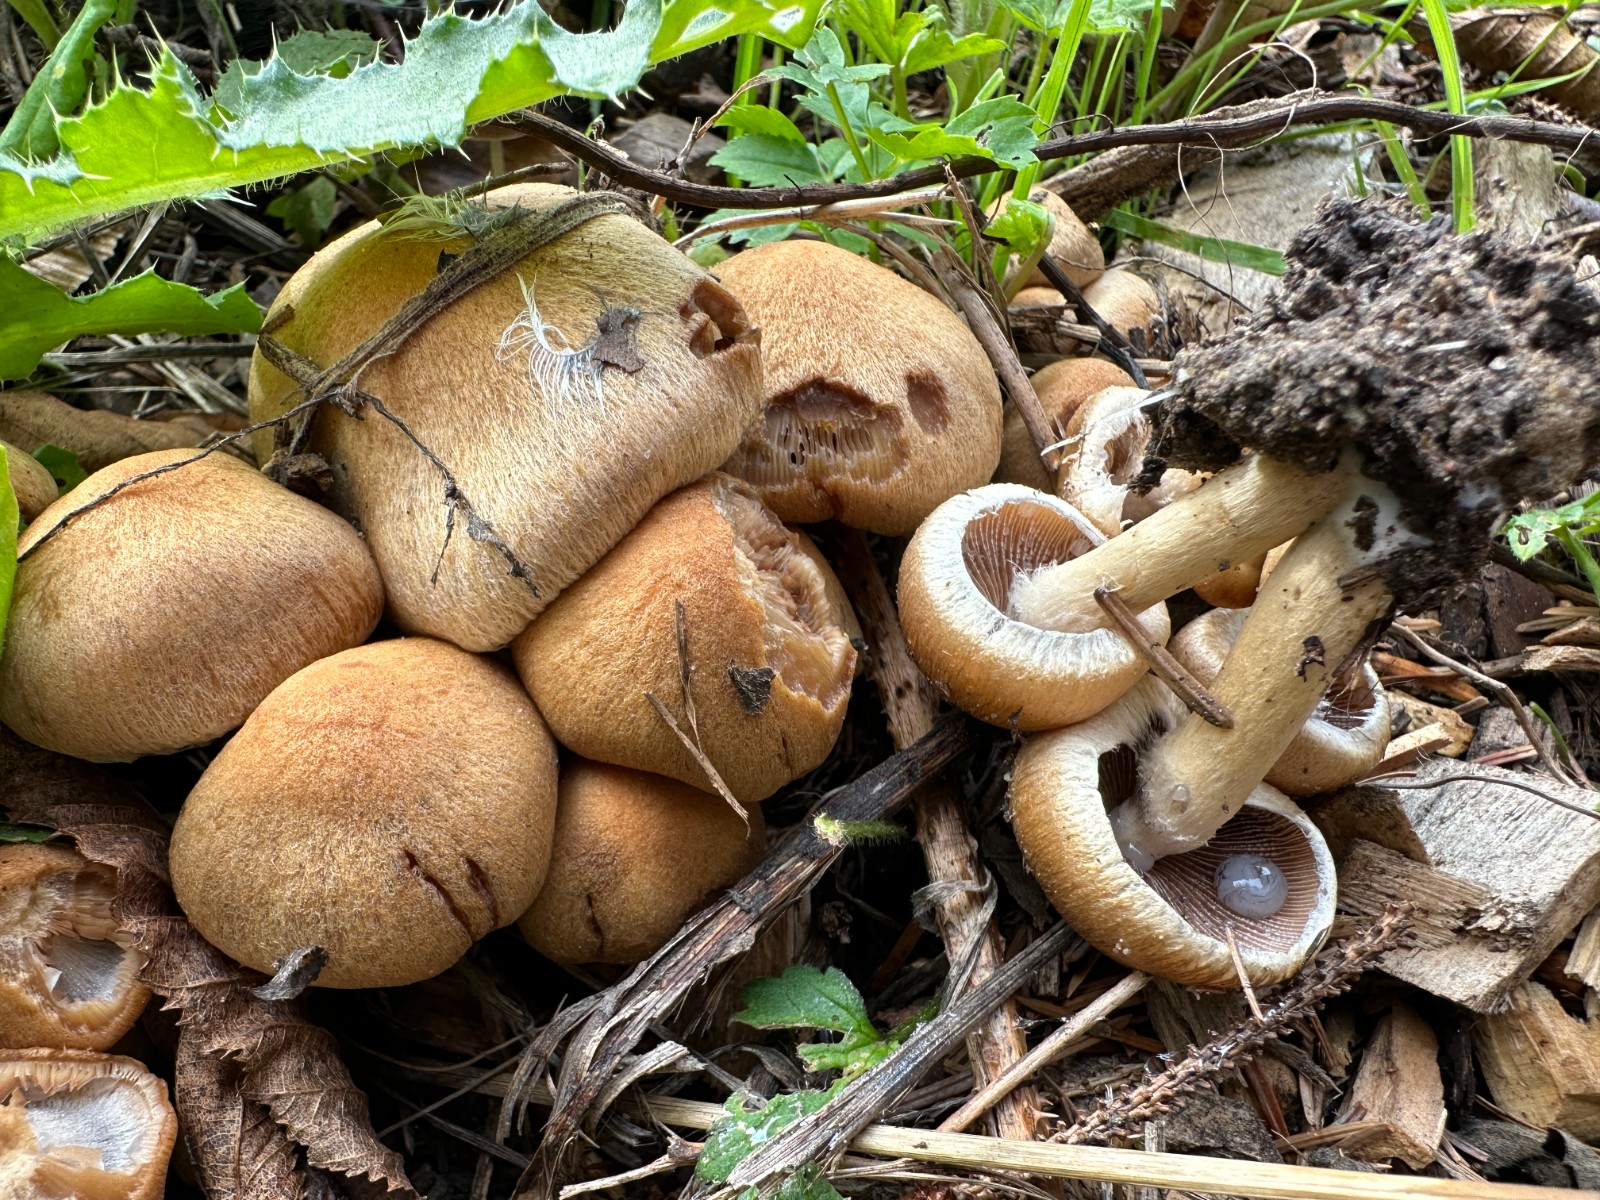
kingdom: Fungi
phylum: Basidiomycota
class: Agaricomycetes
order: Agaricales
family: Psathyrellaceae
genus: Lacrymaria
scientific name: Lacrymaria lacrymabunda
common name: grædende mørkhat
